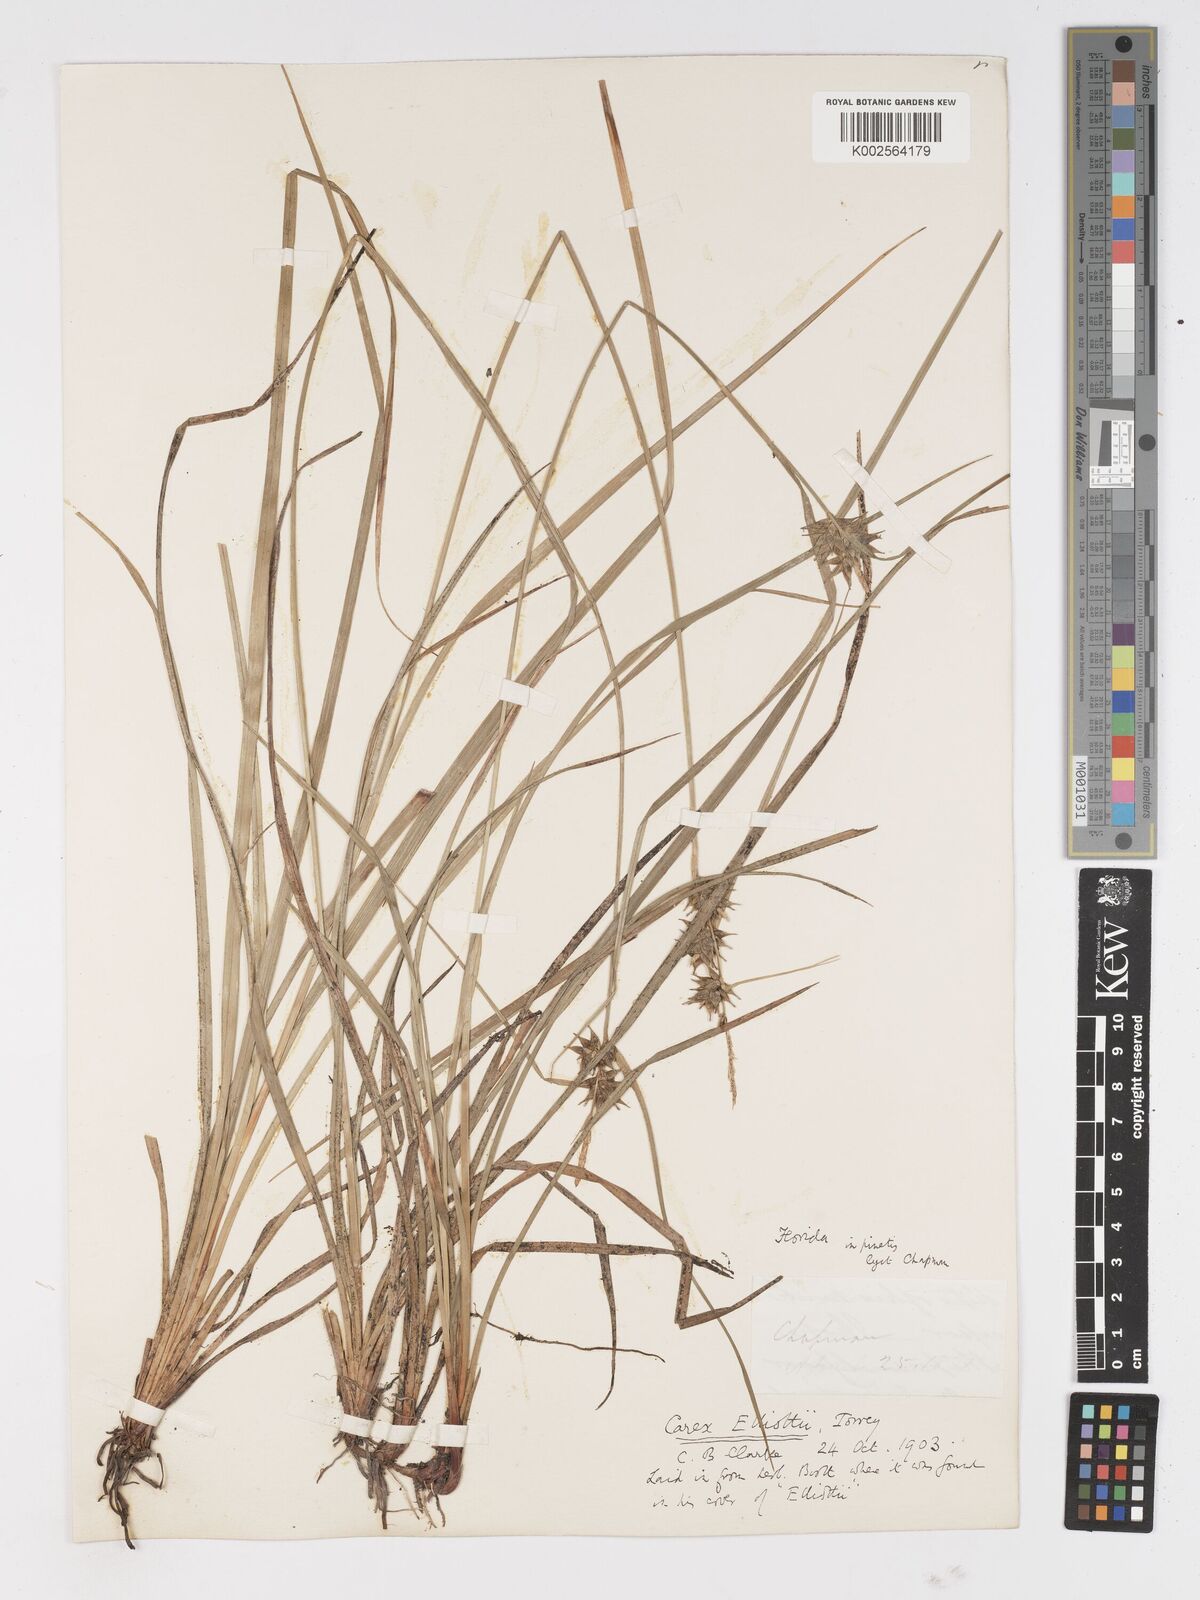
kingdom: Plantae
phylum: Tracheophyta
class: Liliopsida
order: Poales
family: Cyperaceae
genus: Carex
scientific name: Carex elliottii
